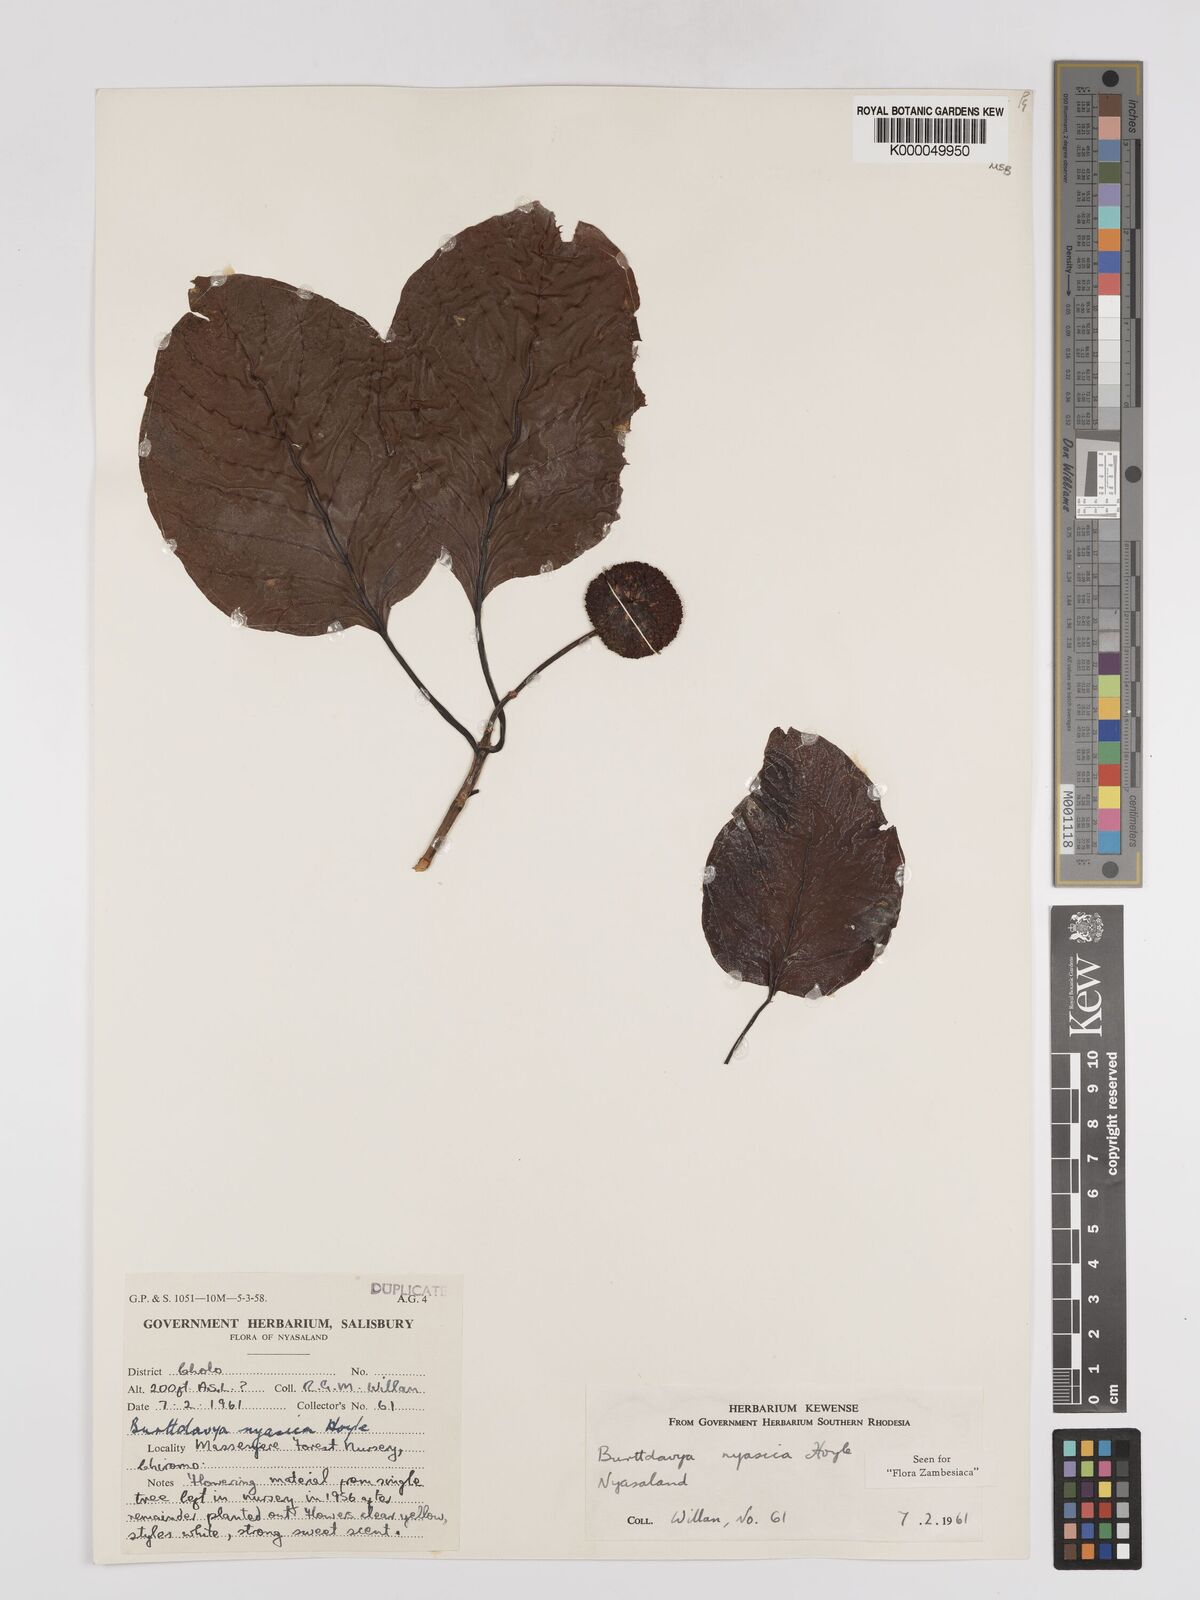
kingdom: Plantae
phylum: Tracheophyta
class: Magnoliopsida
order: Gentianales
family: Rubiaceae
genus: Nauclea
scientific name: Nauclea
